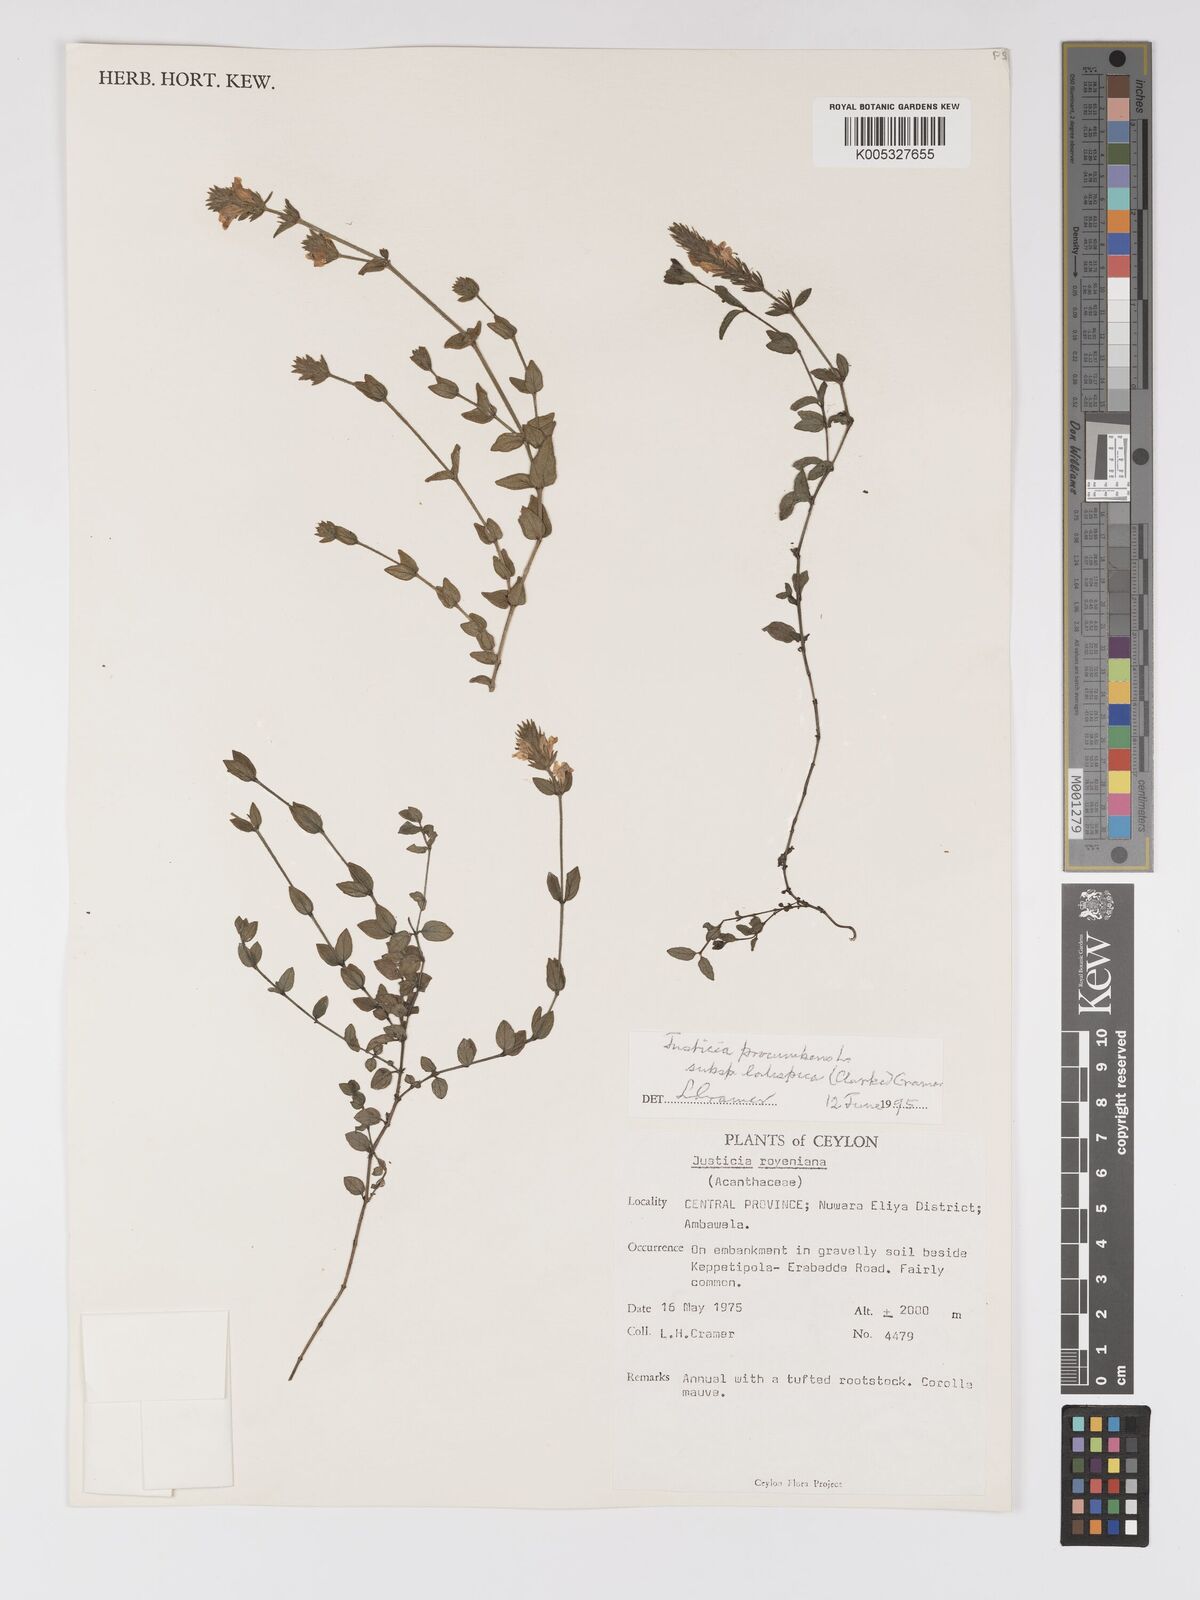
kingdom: Plantae
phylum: Tracheophyta
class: Magnoliopsida
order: Lamiales
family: Acanthaceae
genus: Rostellularia
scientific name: Rostellularia latispica
